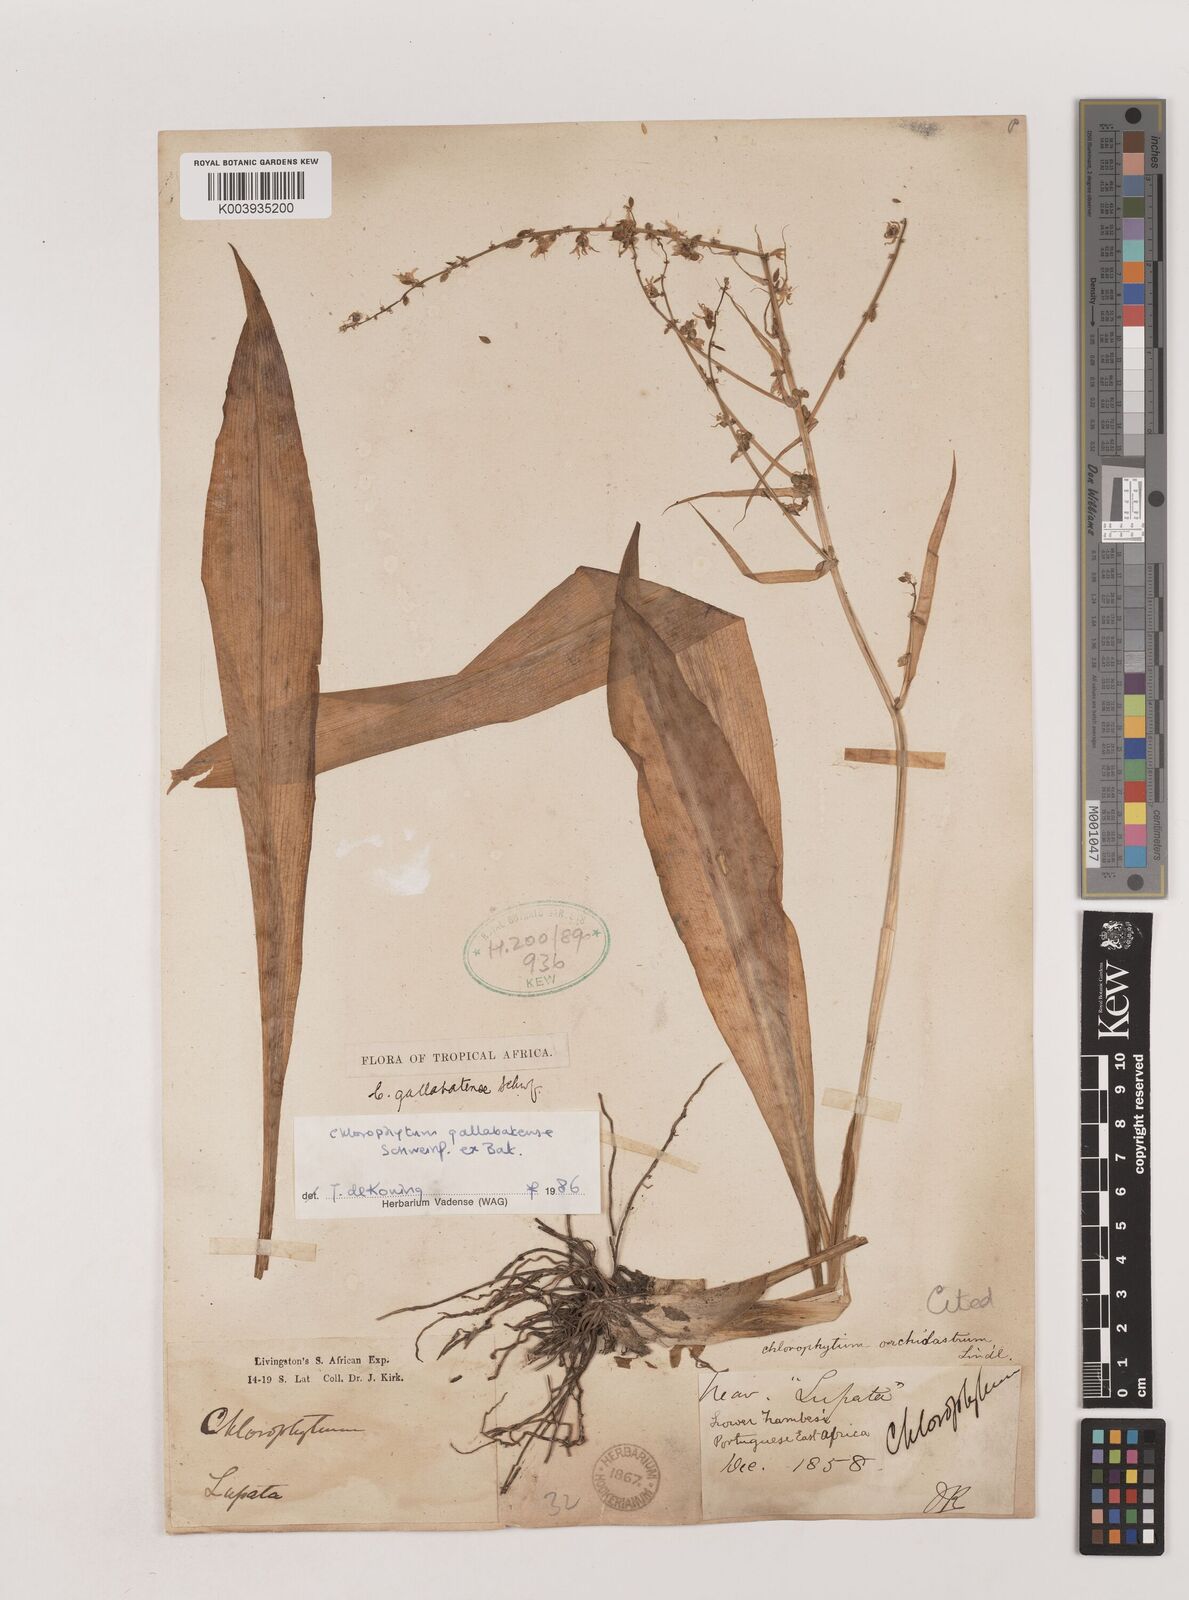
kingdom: Plantae
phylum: Tracheophyta
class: Liliopsida
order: Asparagales
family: Asparagaceae
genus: Chlorophytum
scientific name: Chlorophytum gallabatense
